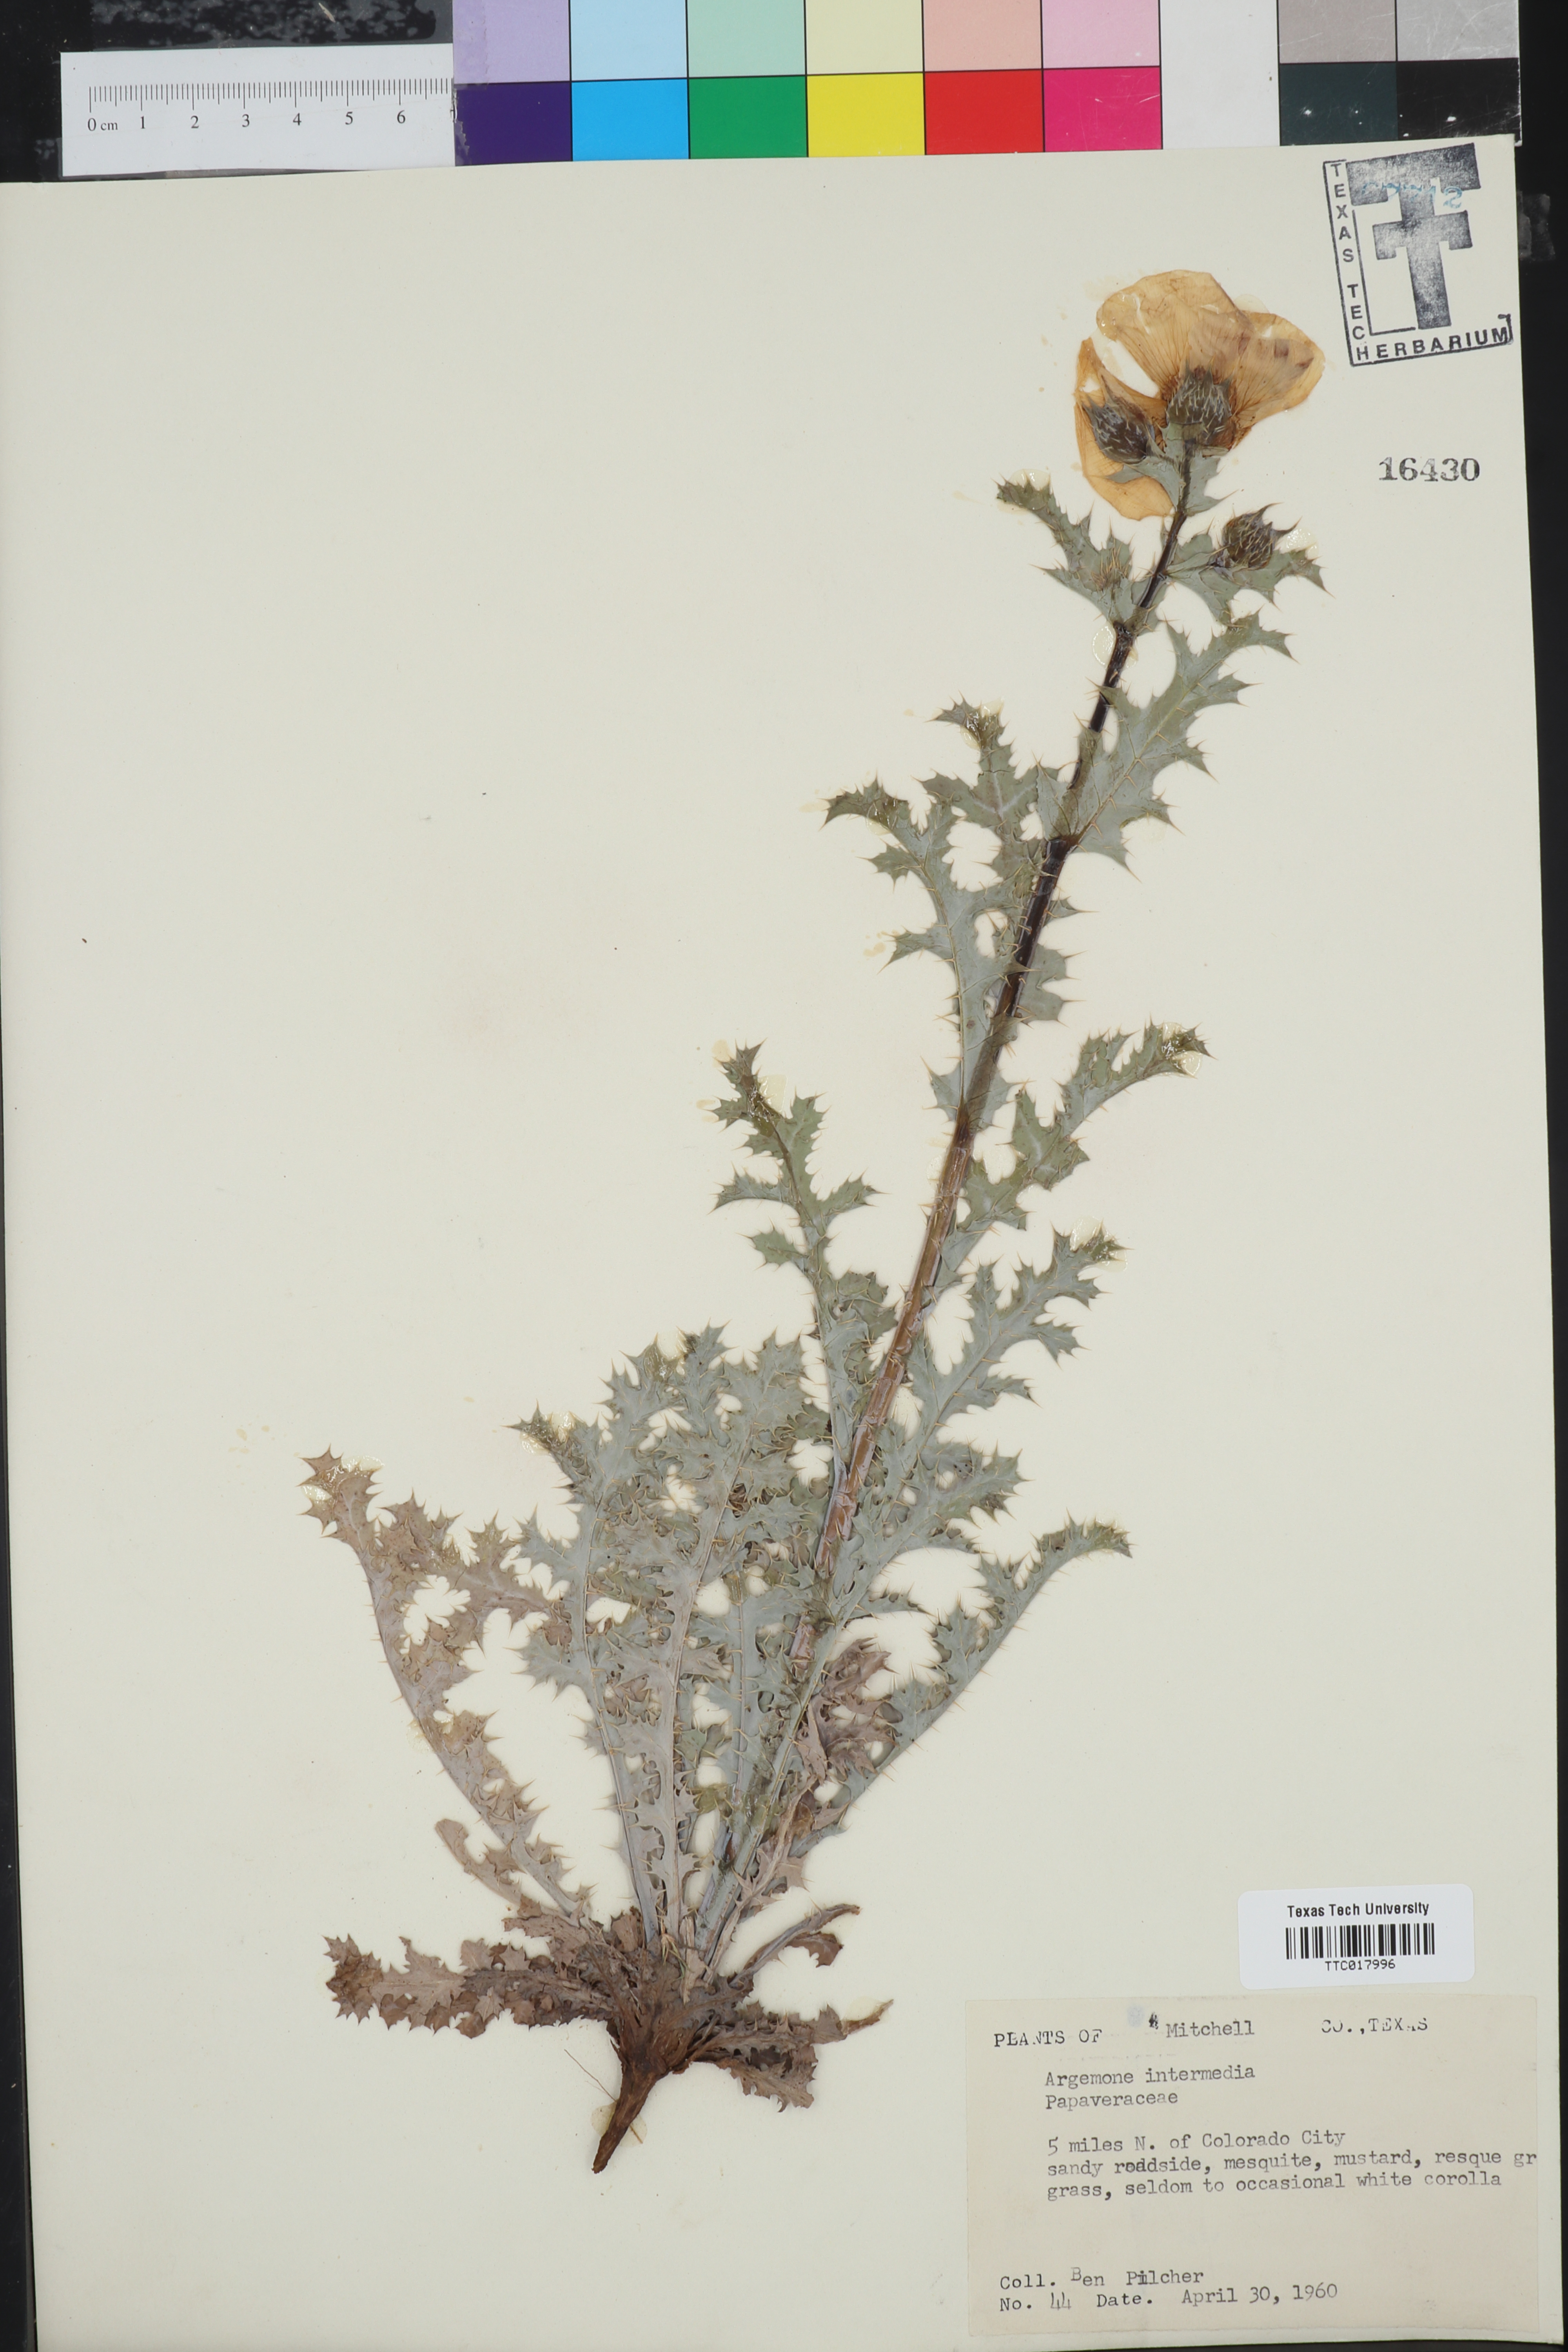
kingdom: Plantae
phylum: Tracheophyta
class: Magnoliopsida
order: Ranunculales
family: Papaveraceae
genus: Argemone
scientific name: Argemone intermedia
